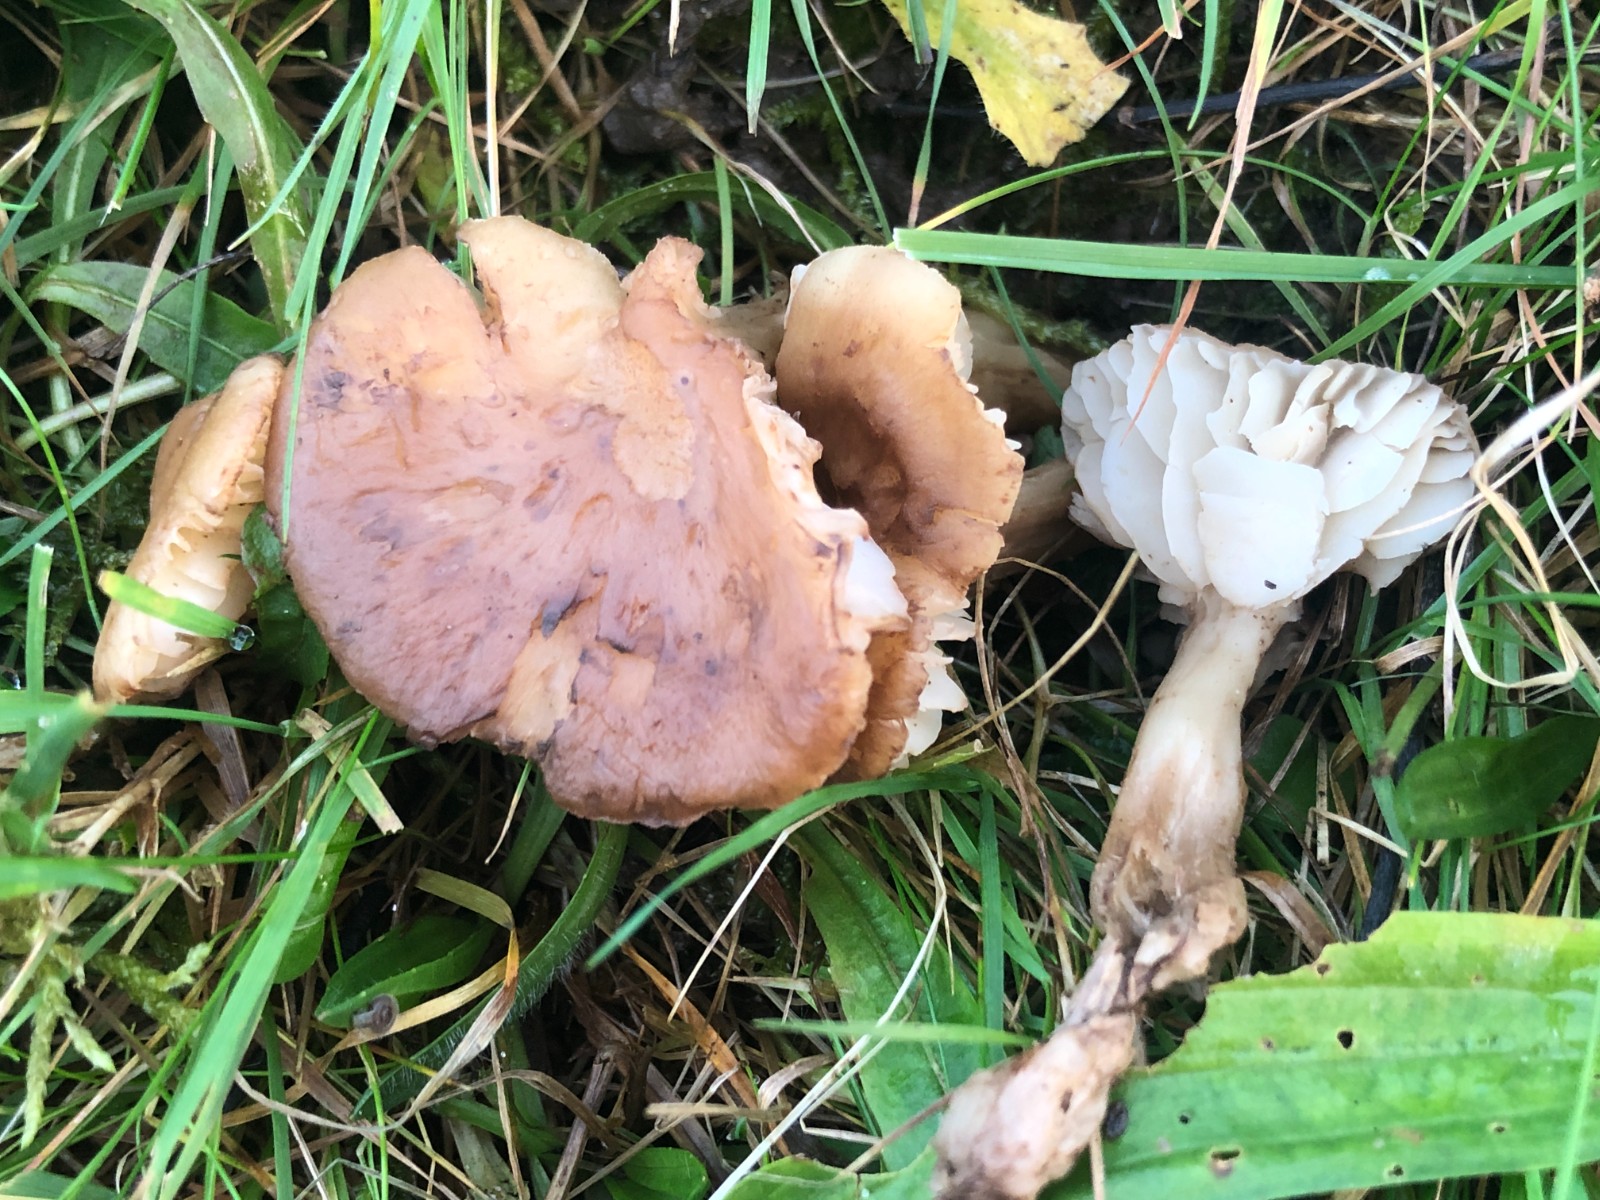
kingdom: Fungi
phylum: Basidiomycota
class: Agaricomycetes
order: Agaricales
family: Hygrophoraceae
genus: Hygrocybe
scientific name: Hygrocybe ingrata
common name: Jensens vokshat
